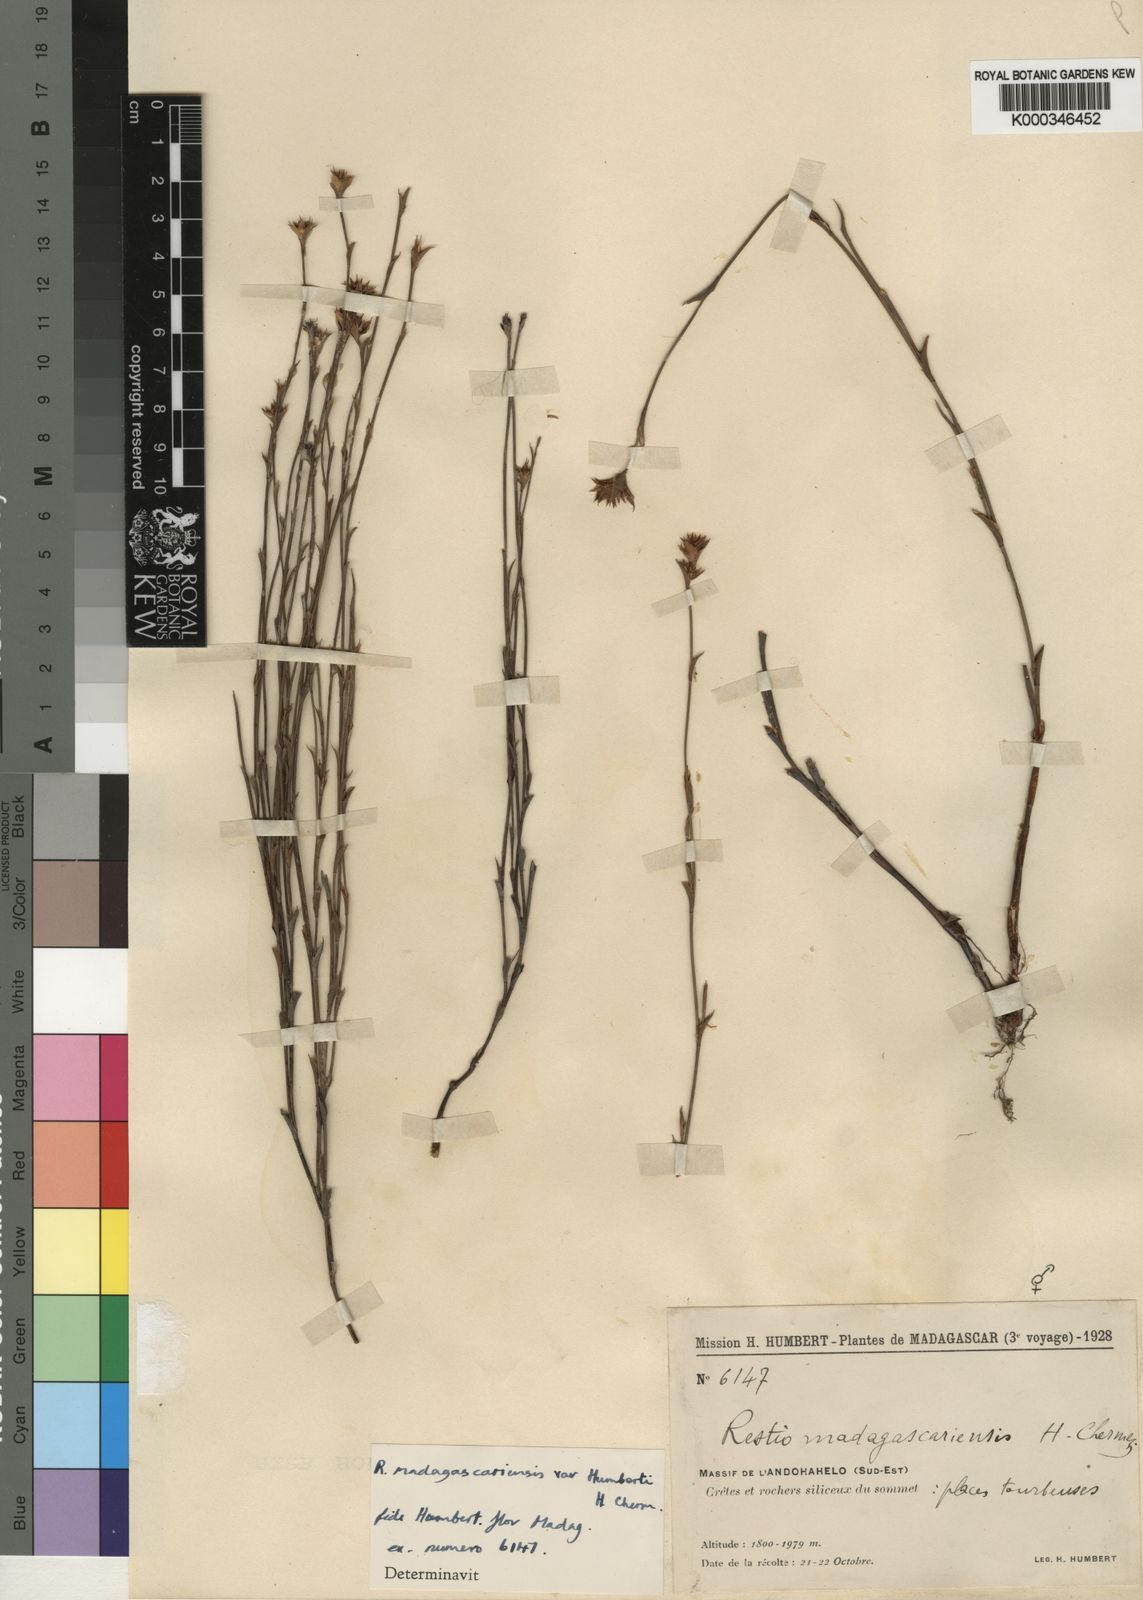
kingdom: Plantae
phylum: Tracheophyta
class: Liliopsida
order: Poales
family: Restionaceae
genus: Platycaulos
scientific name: Platycaulos mahonii
